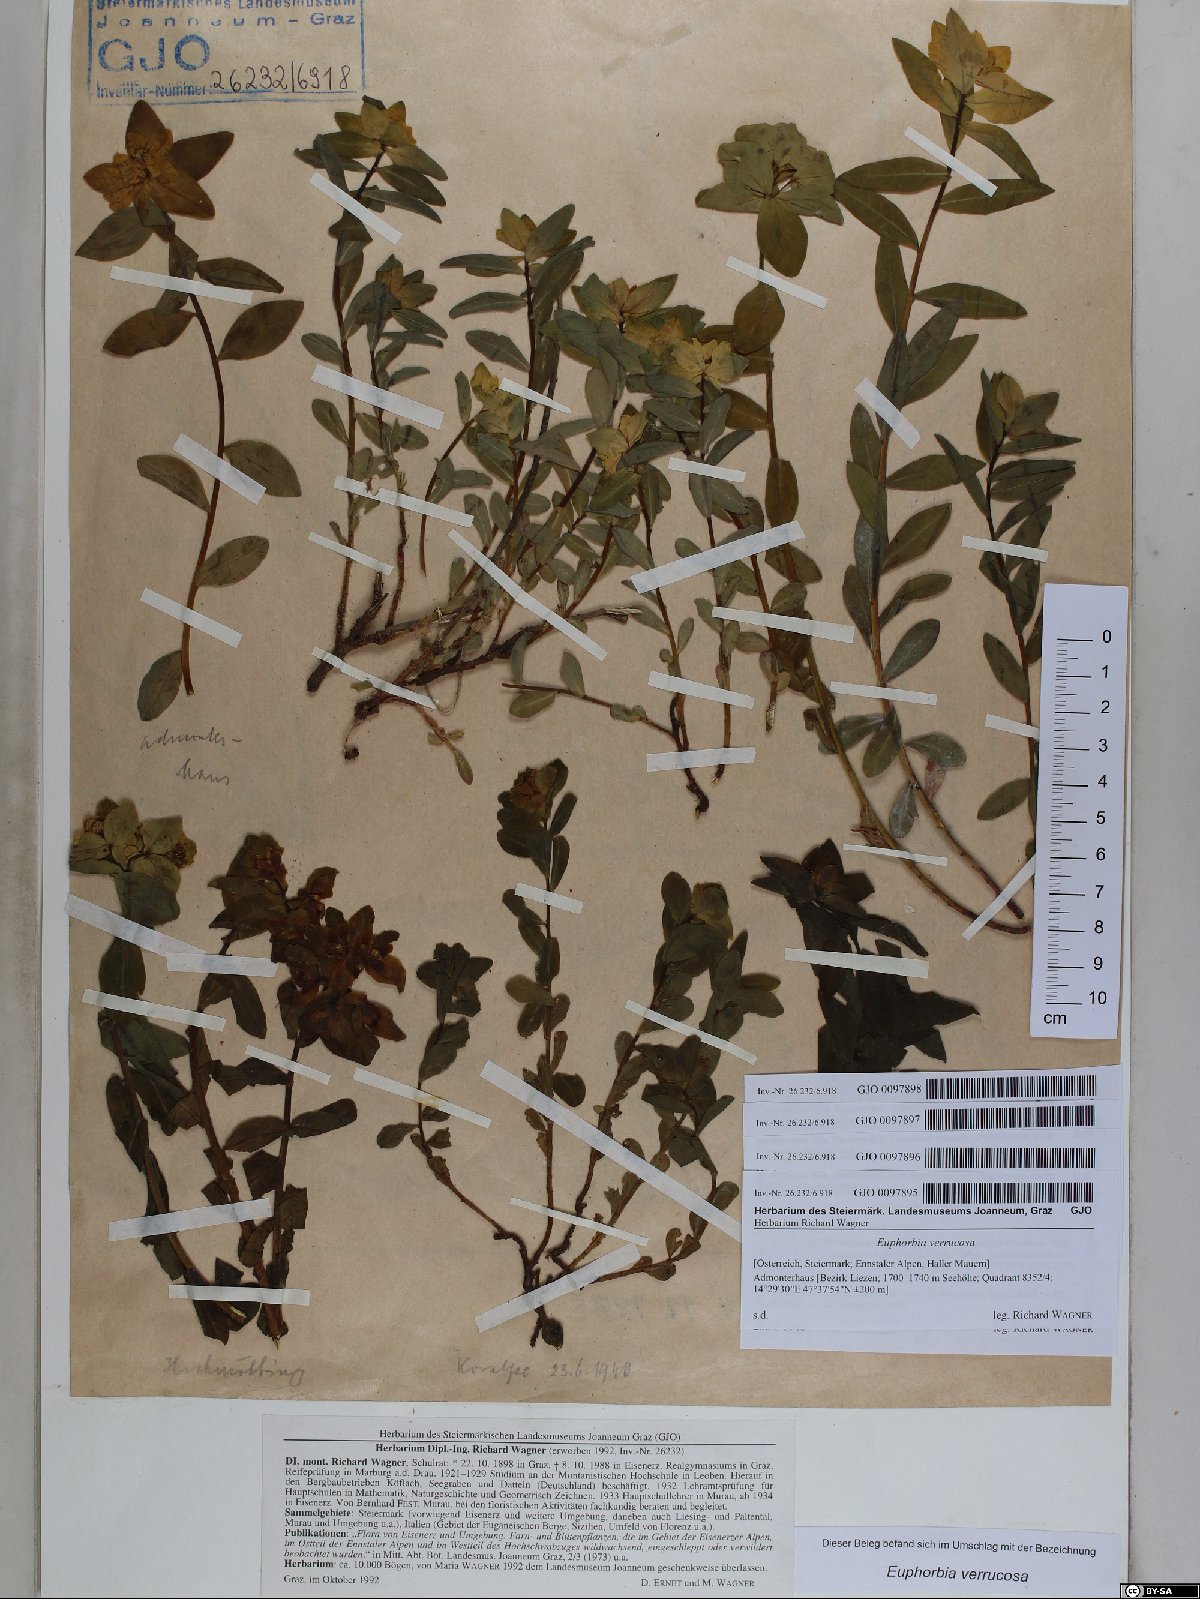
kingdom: Plantae
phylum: Tracheophyta
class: Magnoliopsida
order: Malpighiales
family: Euphorbiaceae
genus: Euphorbia
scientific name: Euphorbia verrucosa
